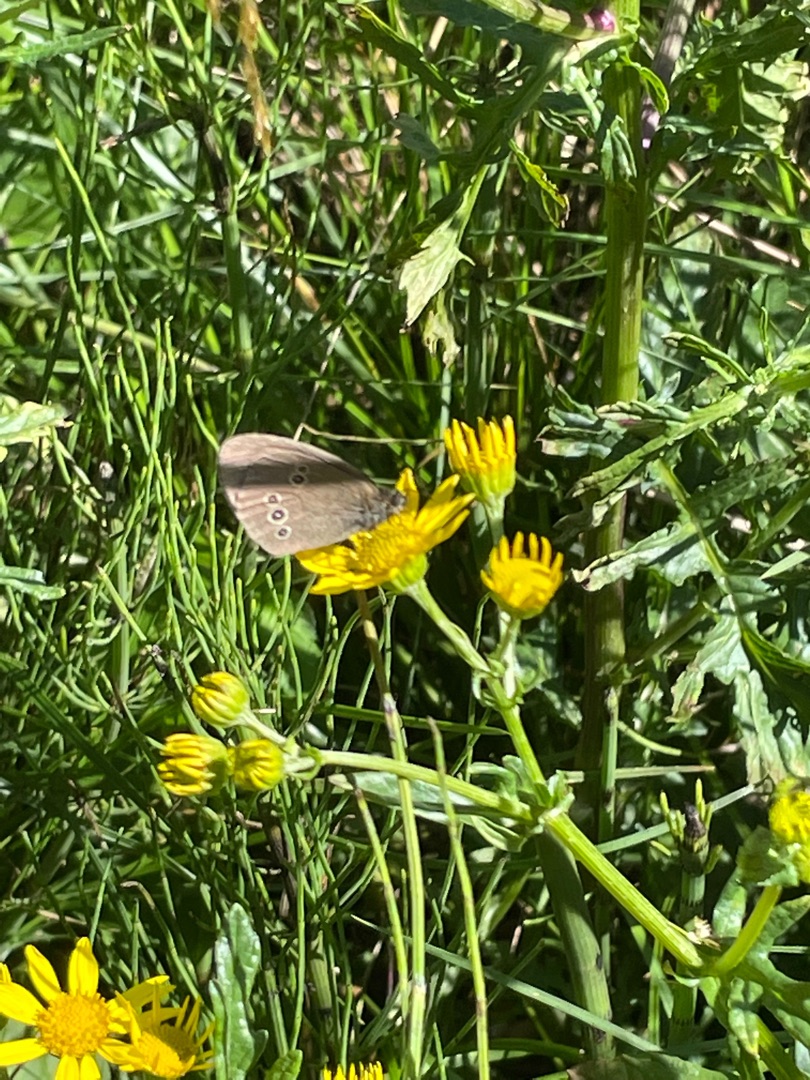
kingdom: Animalia
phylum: Arthropoda
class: Insecta
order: Lepidoptera
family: Nymphalidae
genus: Aphantopus
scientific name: Aphantopus hyperantus
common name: Engrandøje
